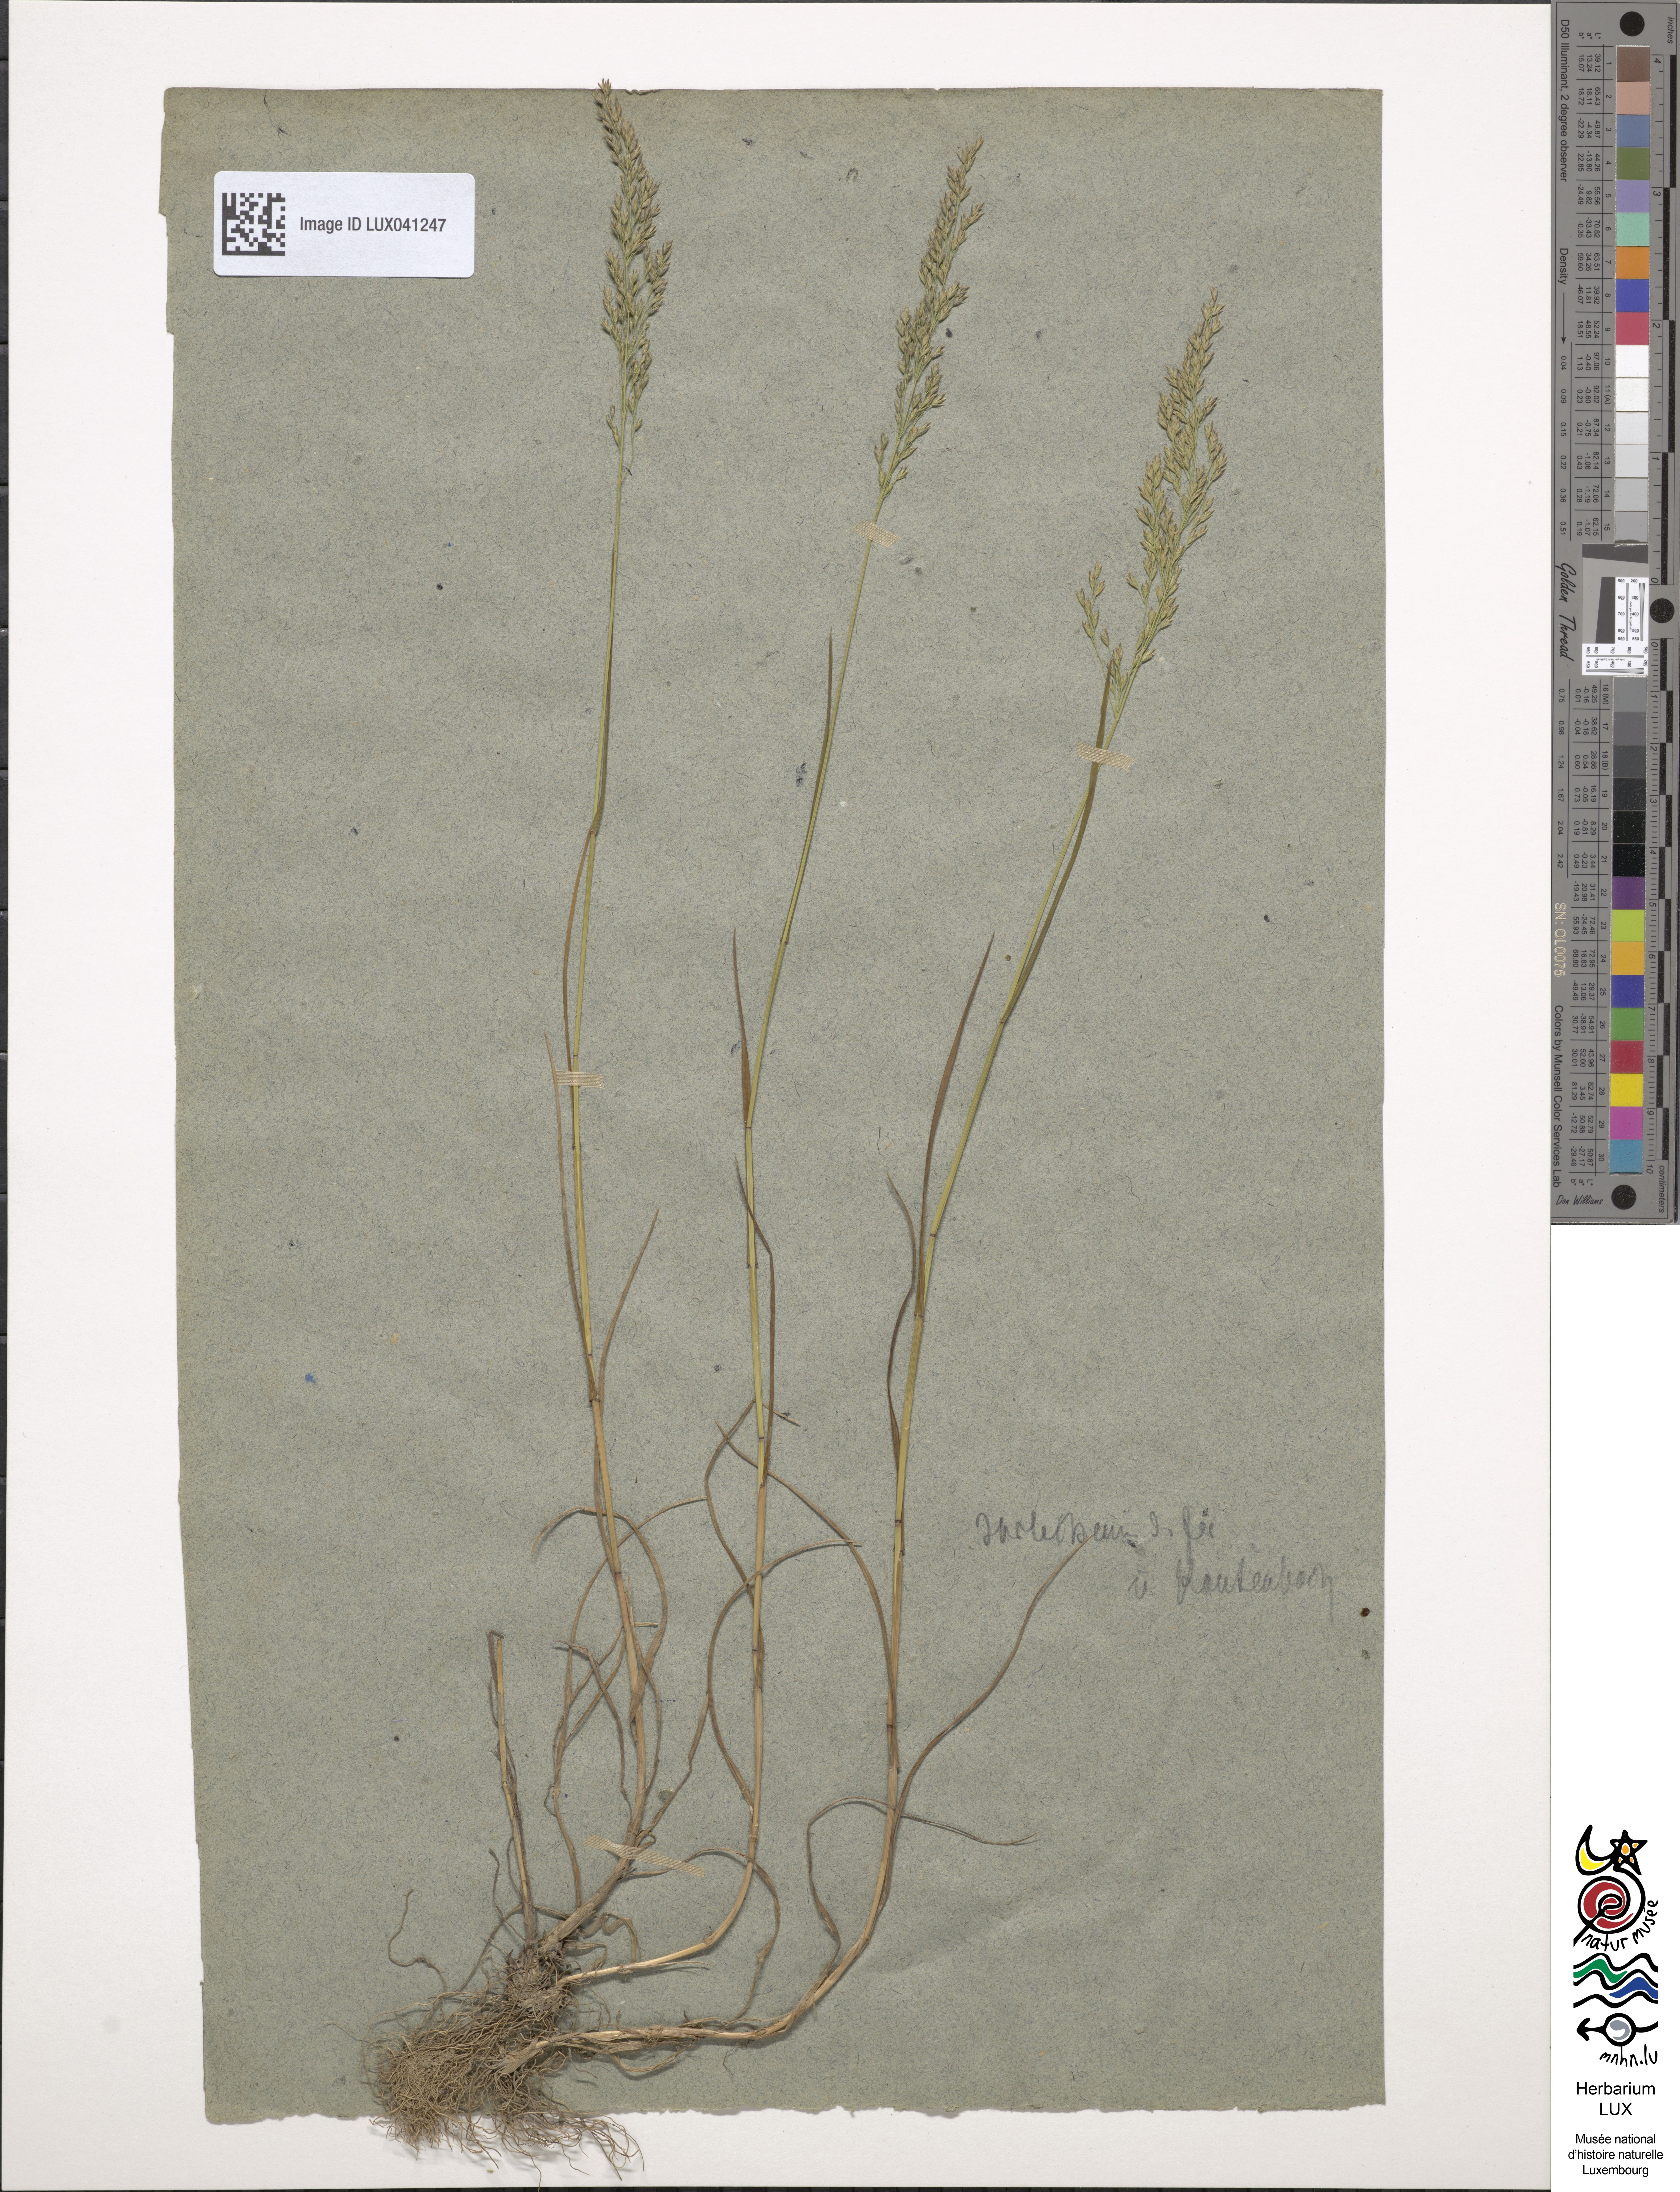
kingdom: Plantae
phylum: Tracheophyta
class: Liliopsida
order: Poales
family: Poaceae
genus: Poa
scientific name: Poa nemoralis
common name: Wood bluegrass
